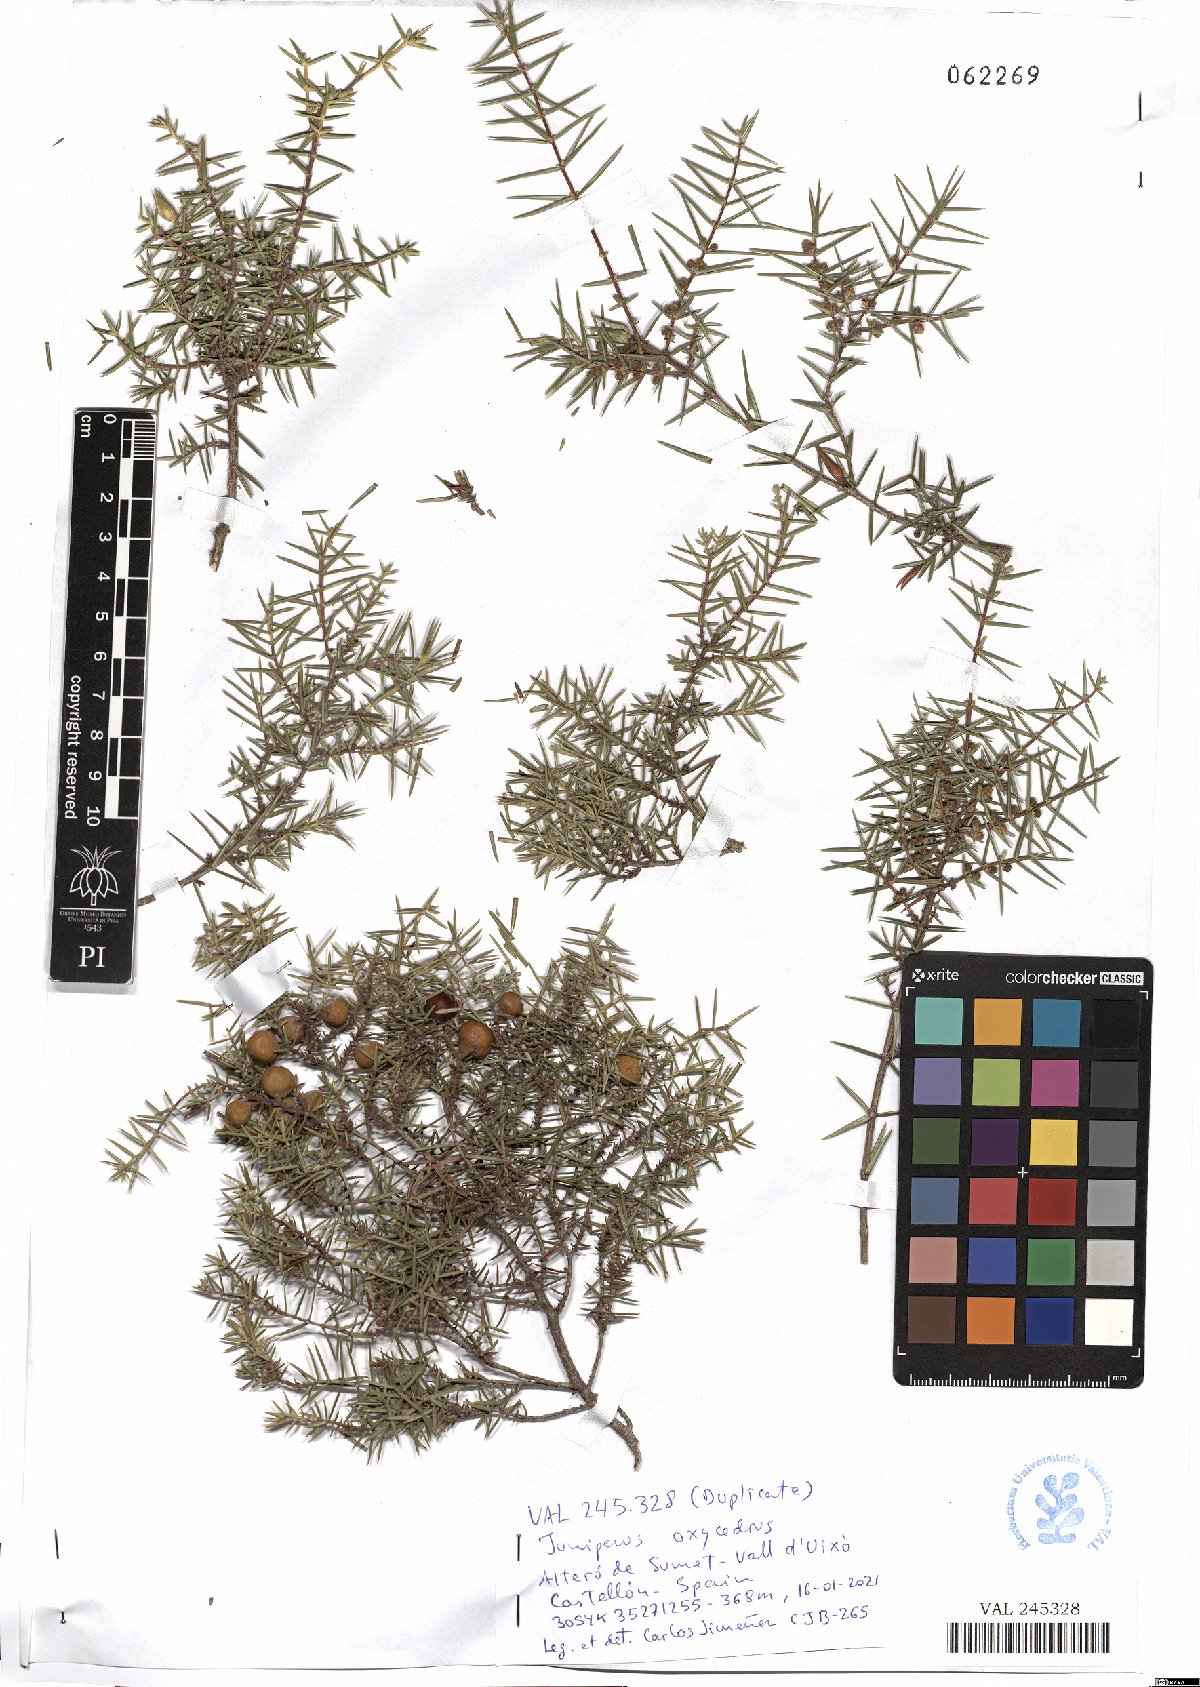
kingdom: Plantae
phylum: Tracheophyta
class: Pinopsida
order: Pinales
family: Cupressaceae
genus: Juniperus
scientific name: Juniperus oxycedrus
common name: Prickly juniper
